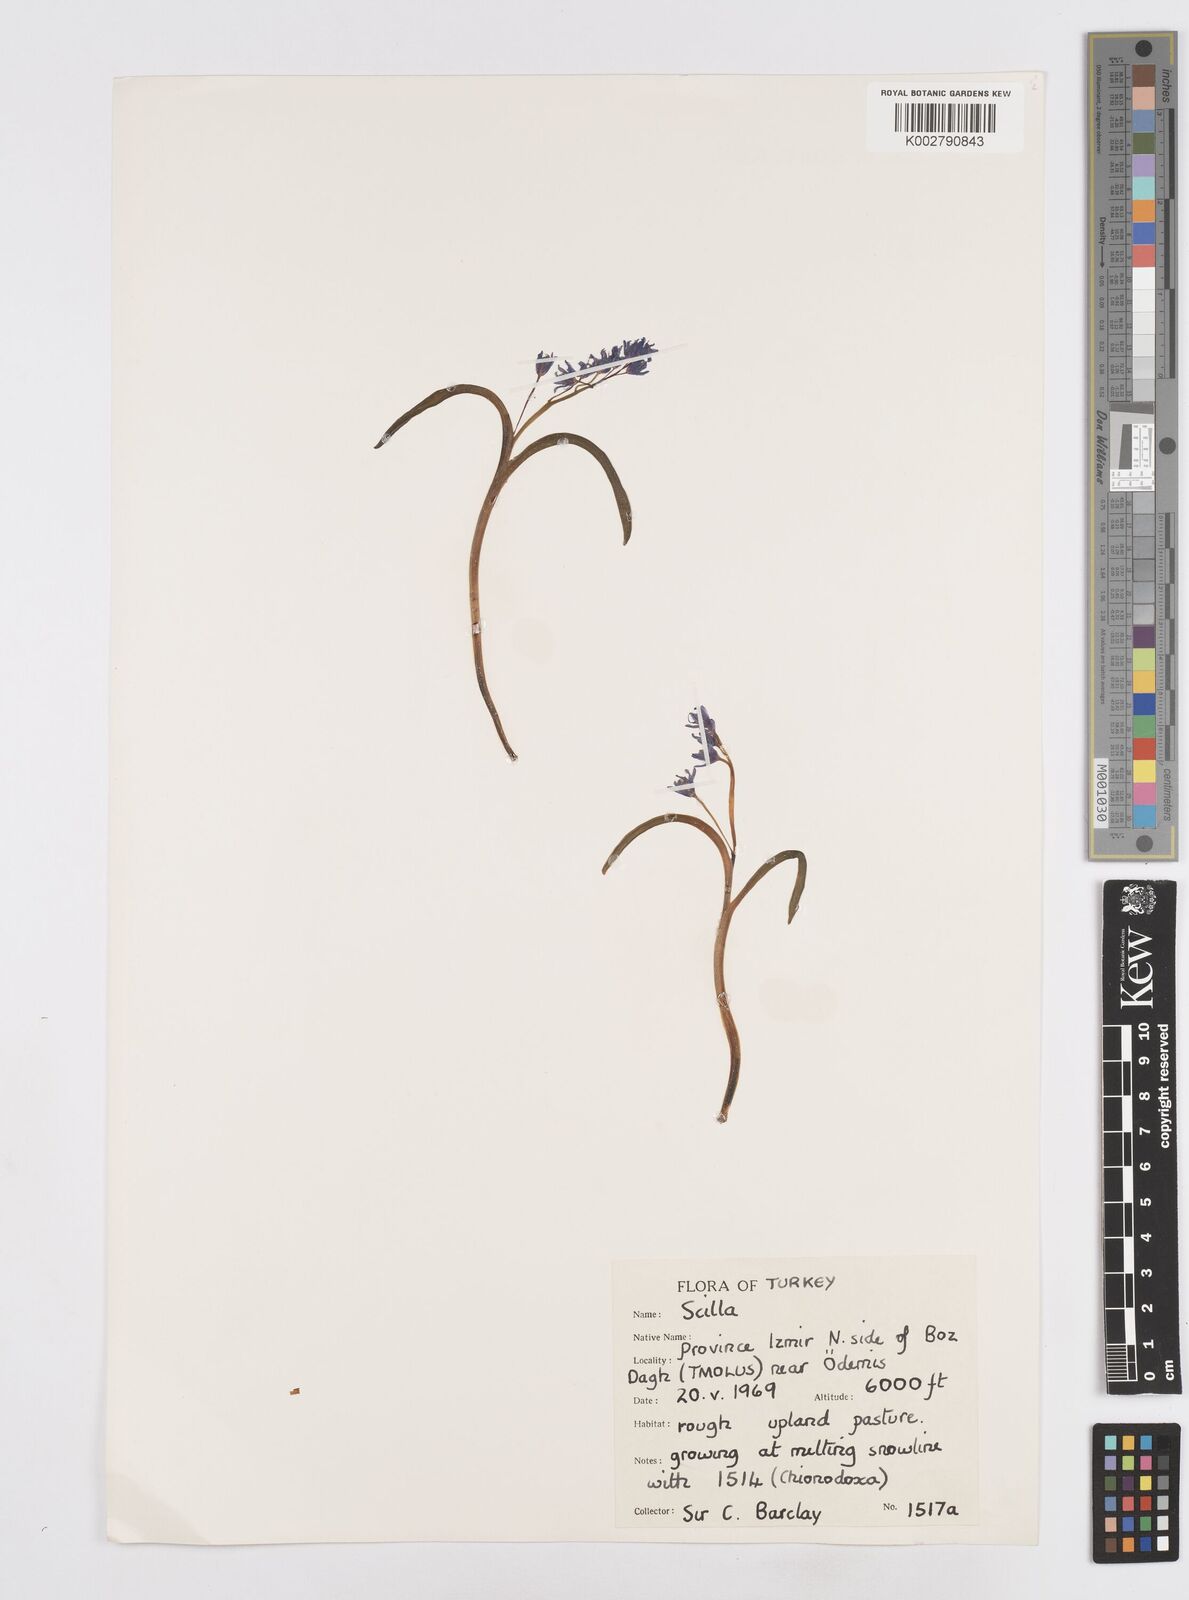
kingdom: Plantae
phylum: Tracheophyta
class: Liliopsida
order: Asparagales
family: Asparagaceae
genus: Scilla
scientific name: Scilla bifolia
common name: Alpine squill
